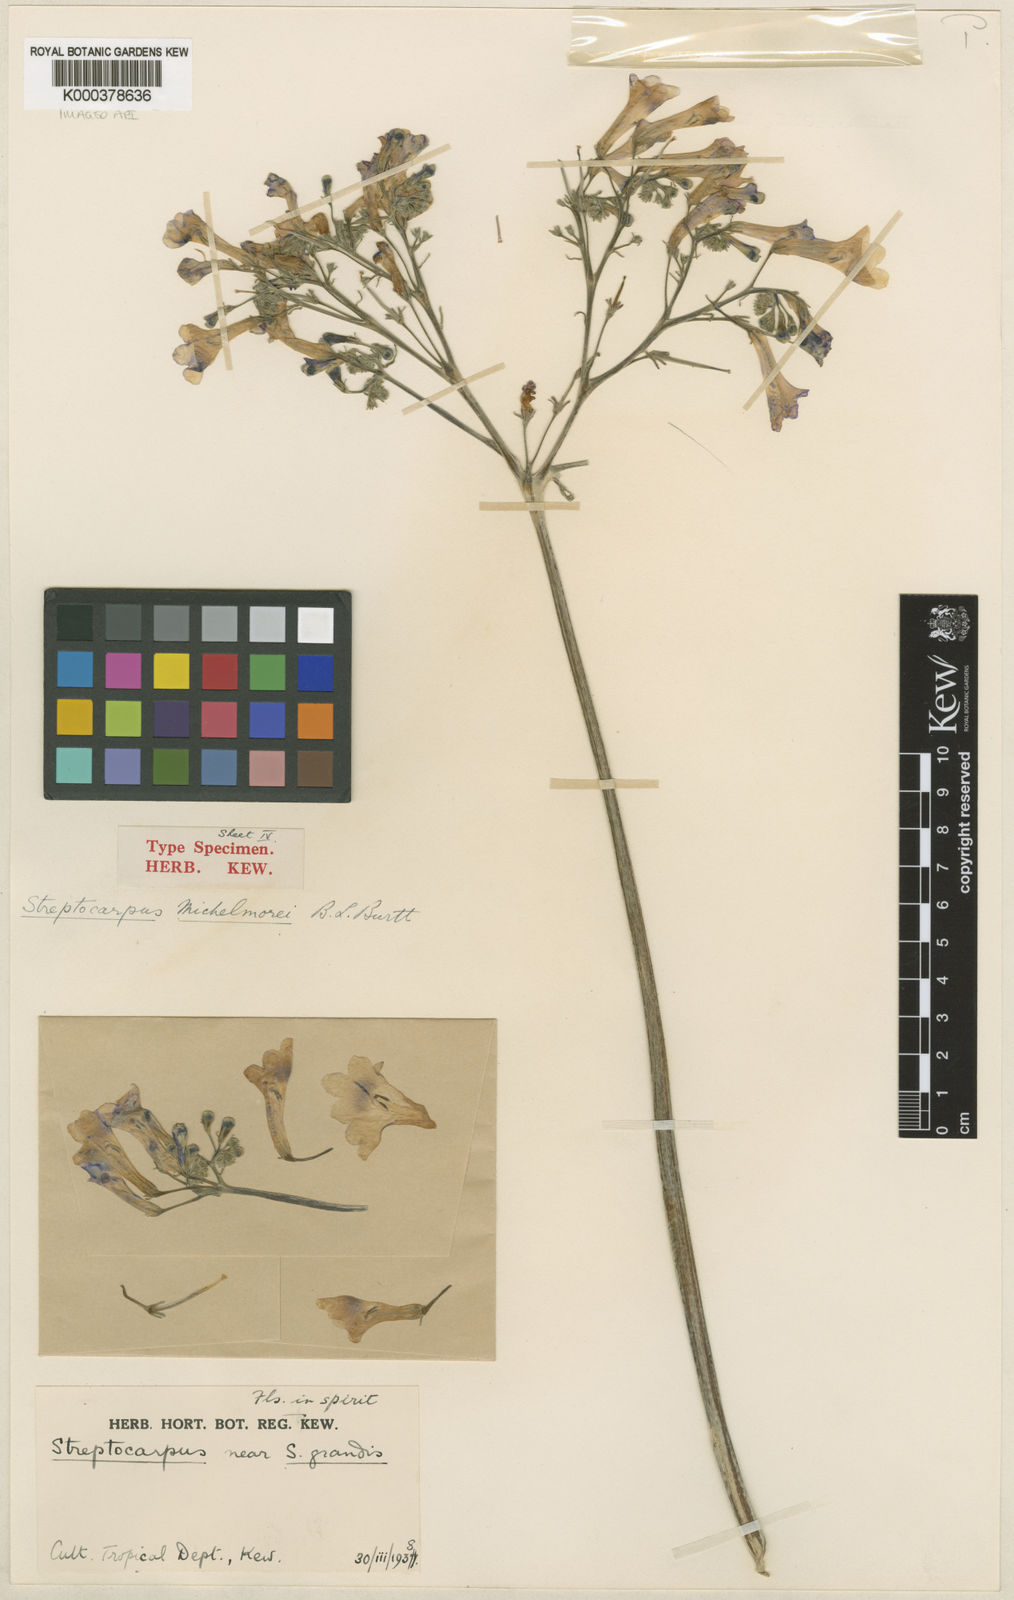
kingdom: Plantae
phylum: Tracheophyta
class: Magnoliopsida
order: Lamiales
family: Gesneriaceae
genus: Streptocarpus
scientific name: Streptocarpus michelmorei
